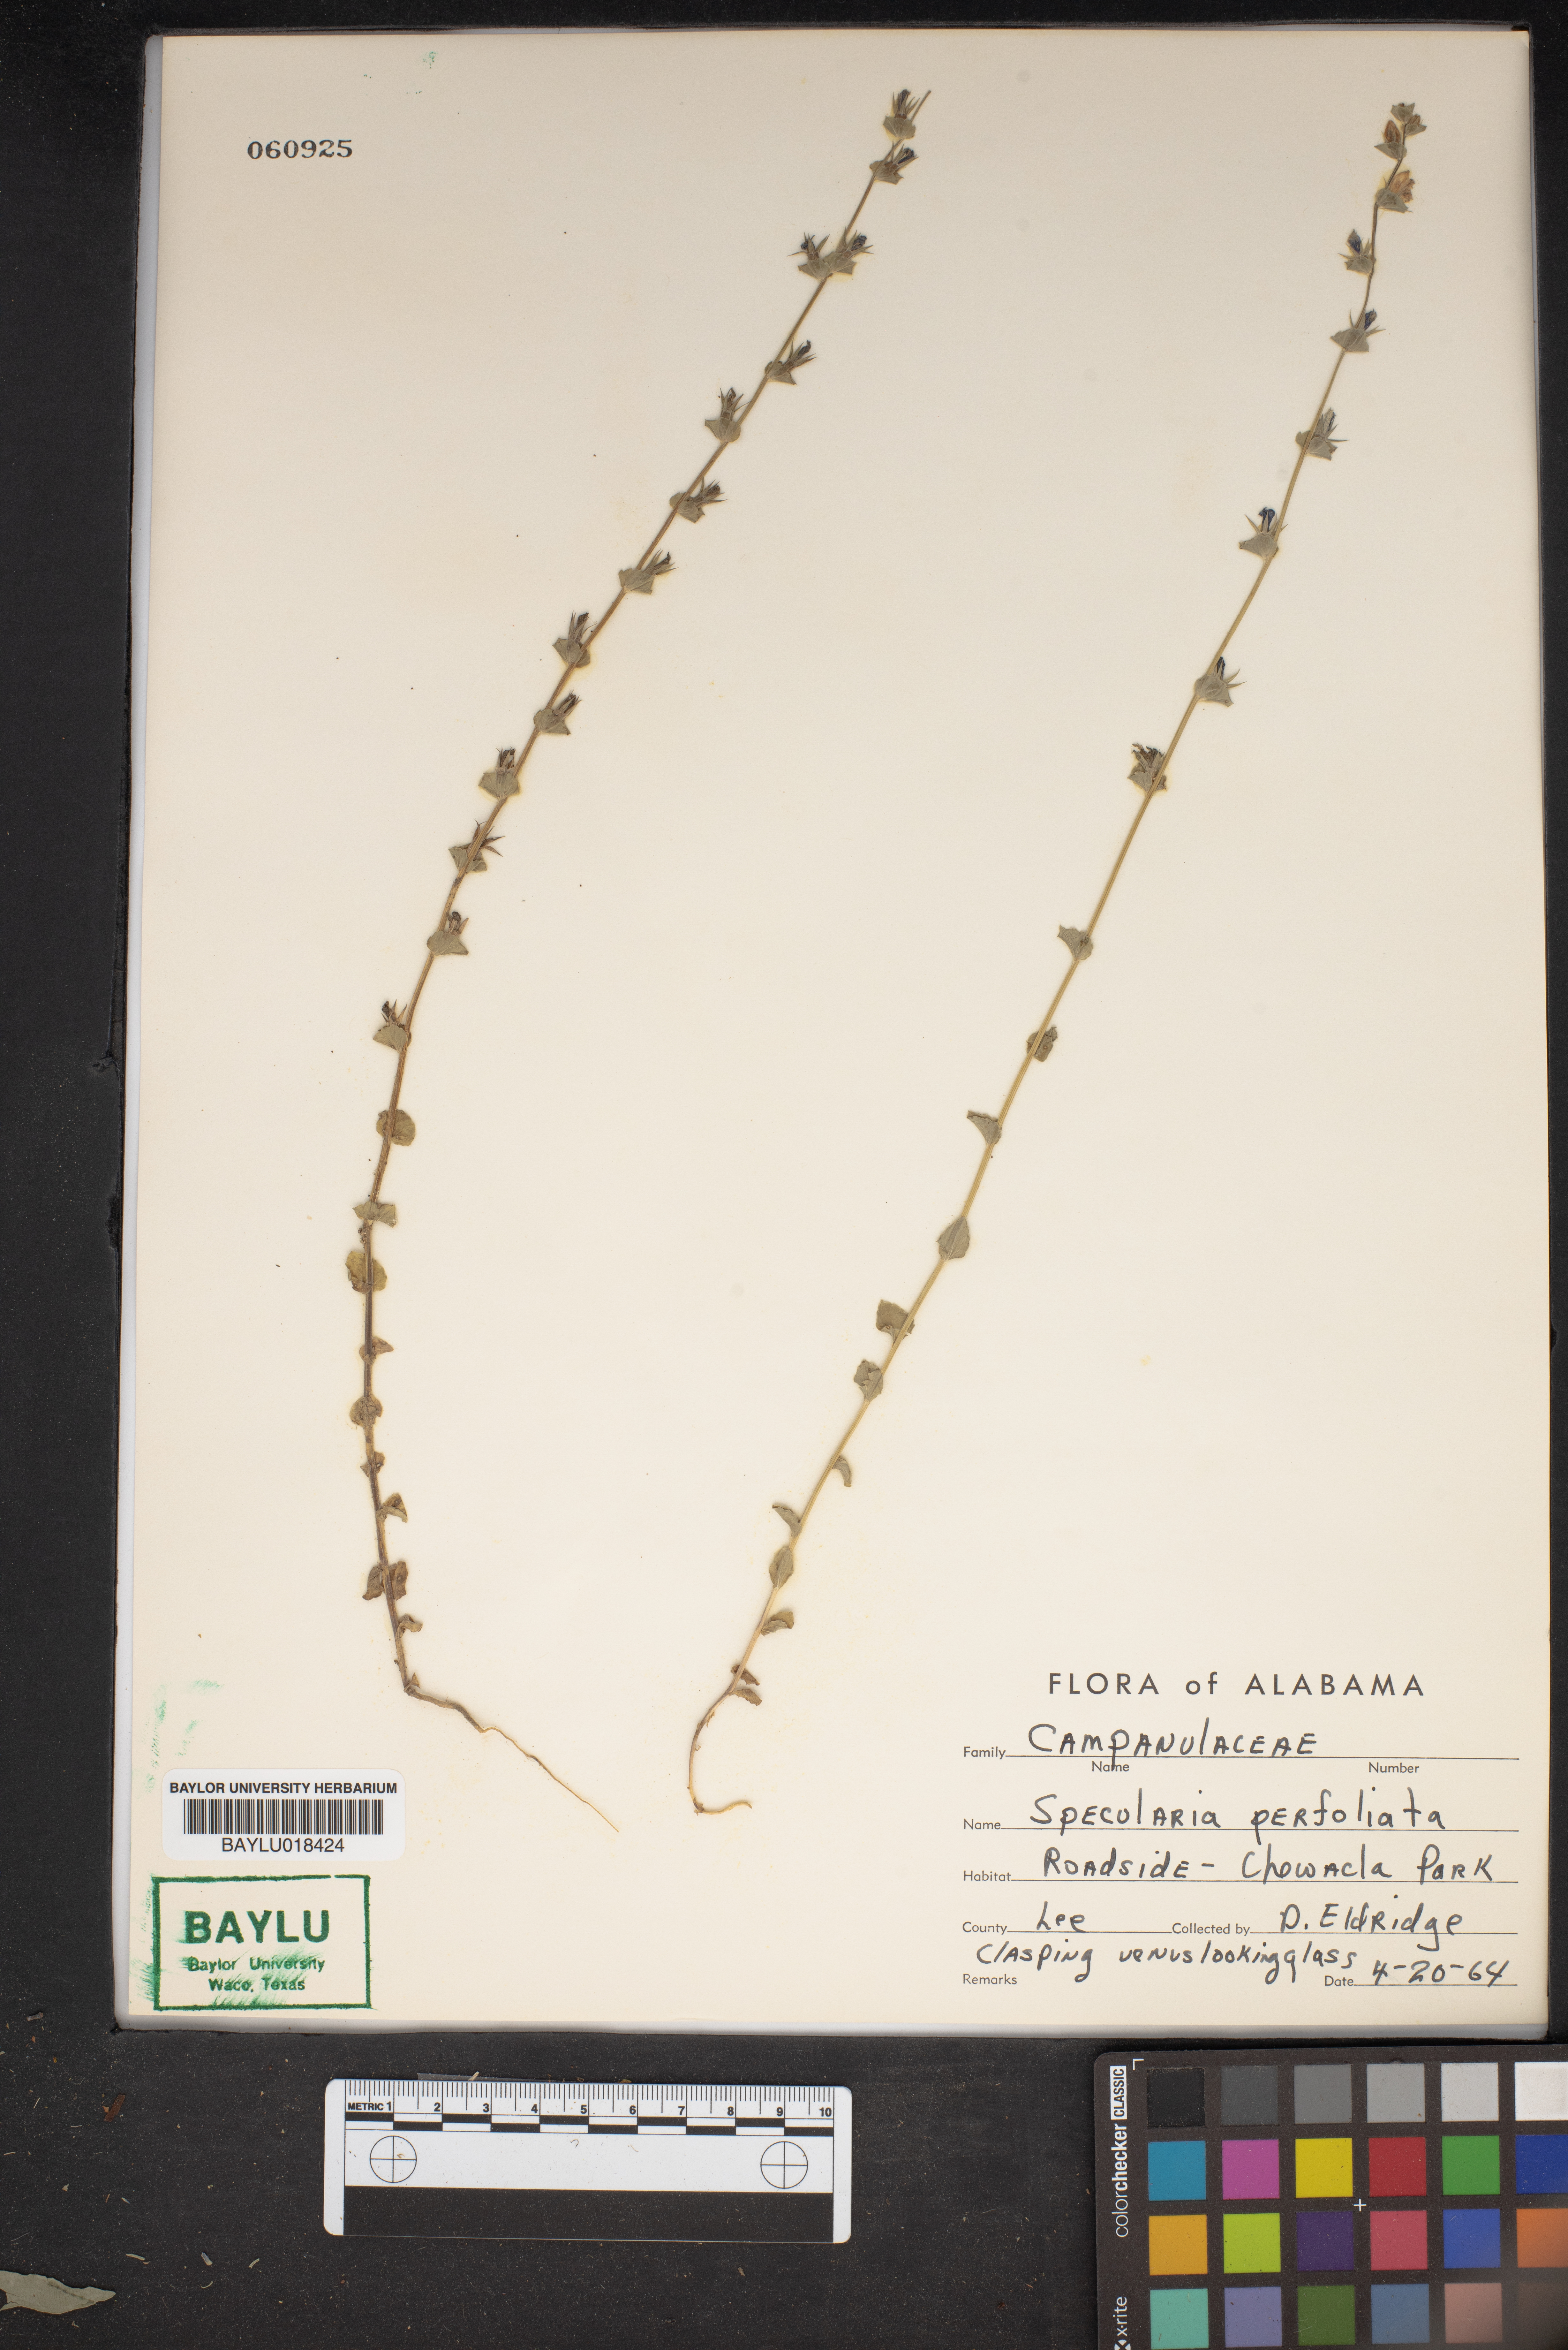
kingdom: Plantae
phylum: Tracheophyta
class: Magnoliopsida
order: Asterales
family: Campanulaceae
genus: Triodanis
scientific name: Triodanis perfoliata
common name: Clasping venus' looking-glass
